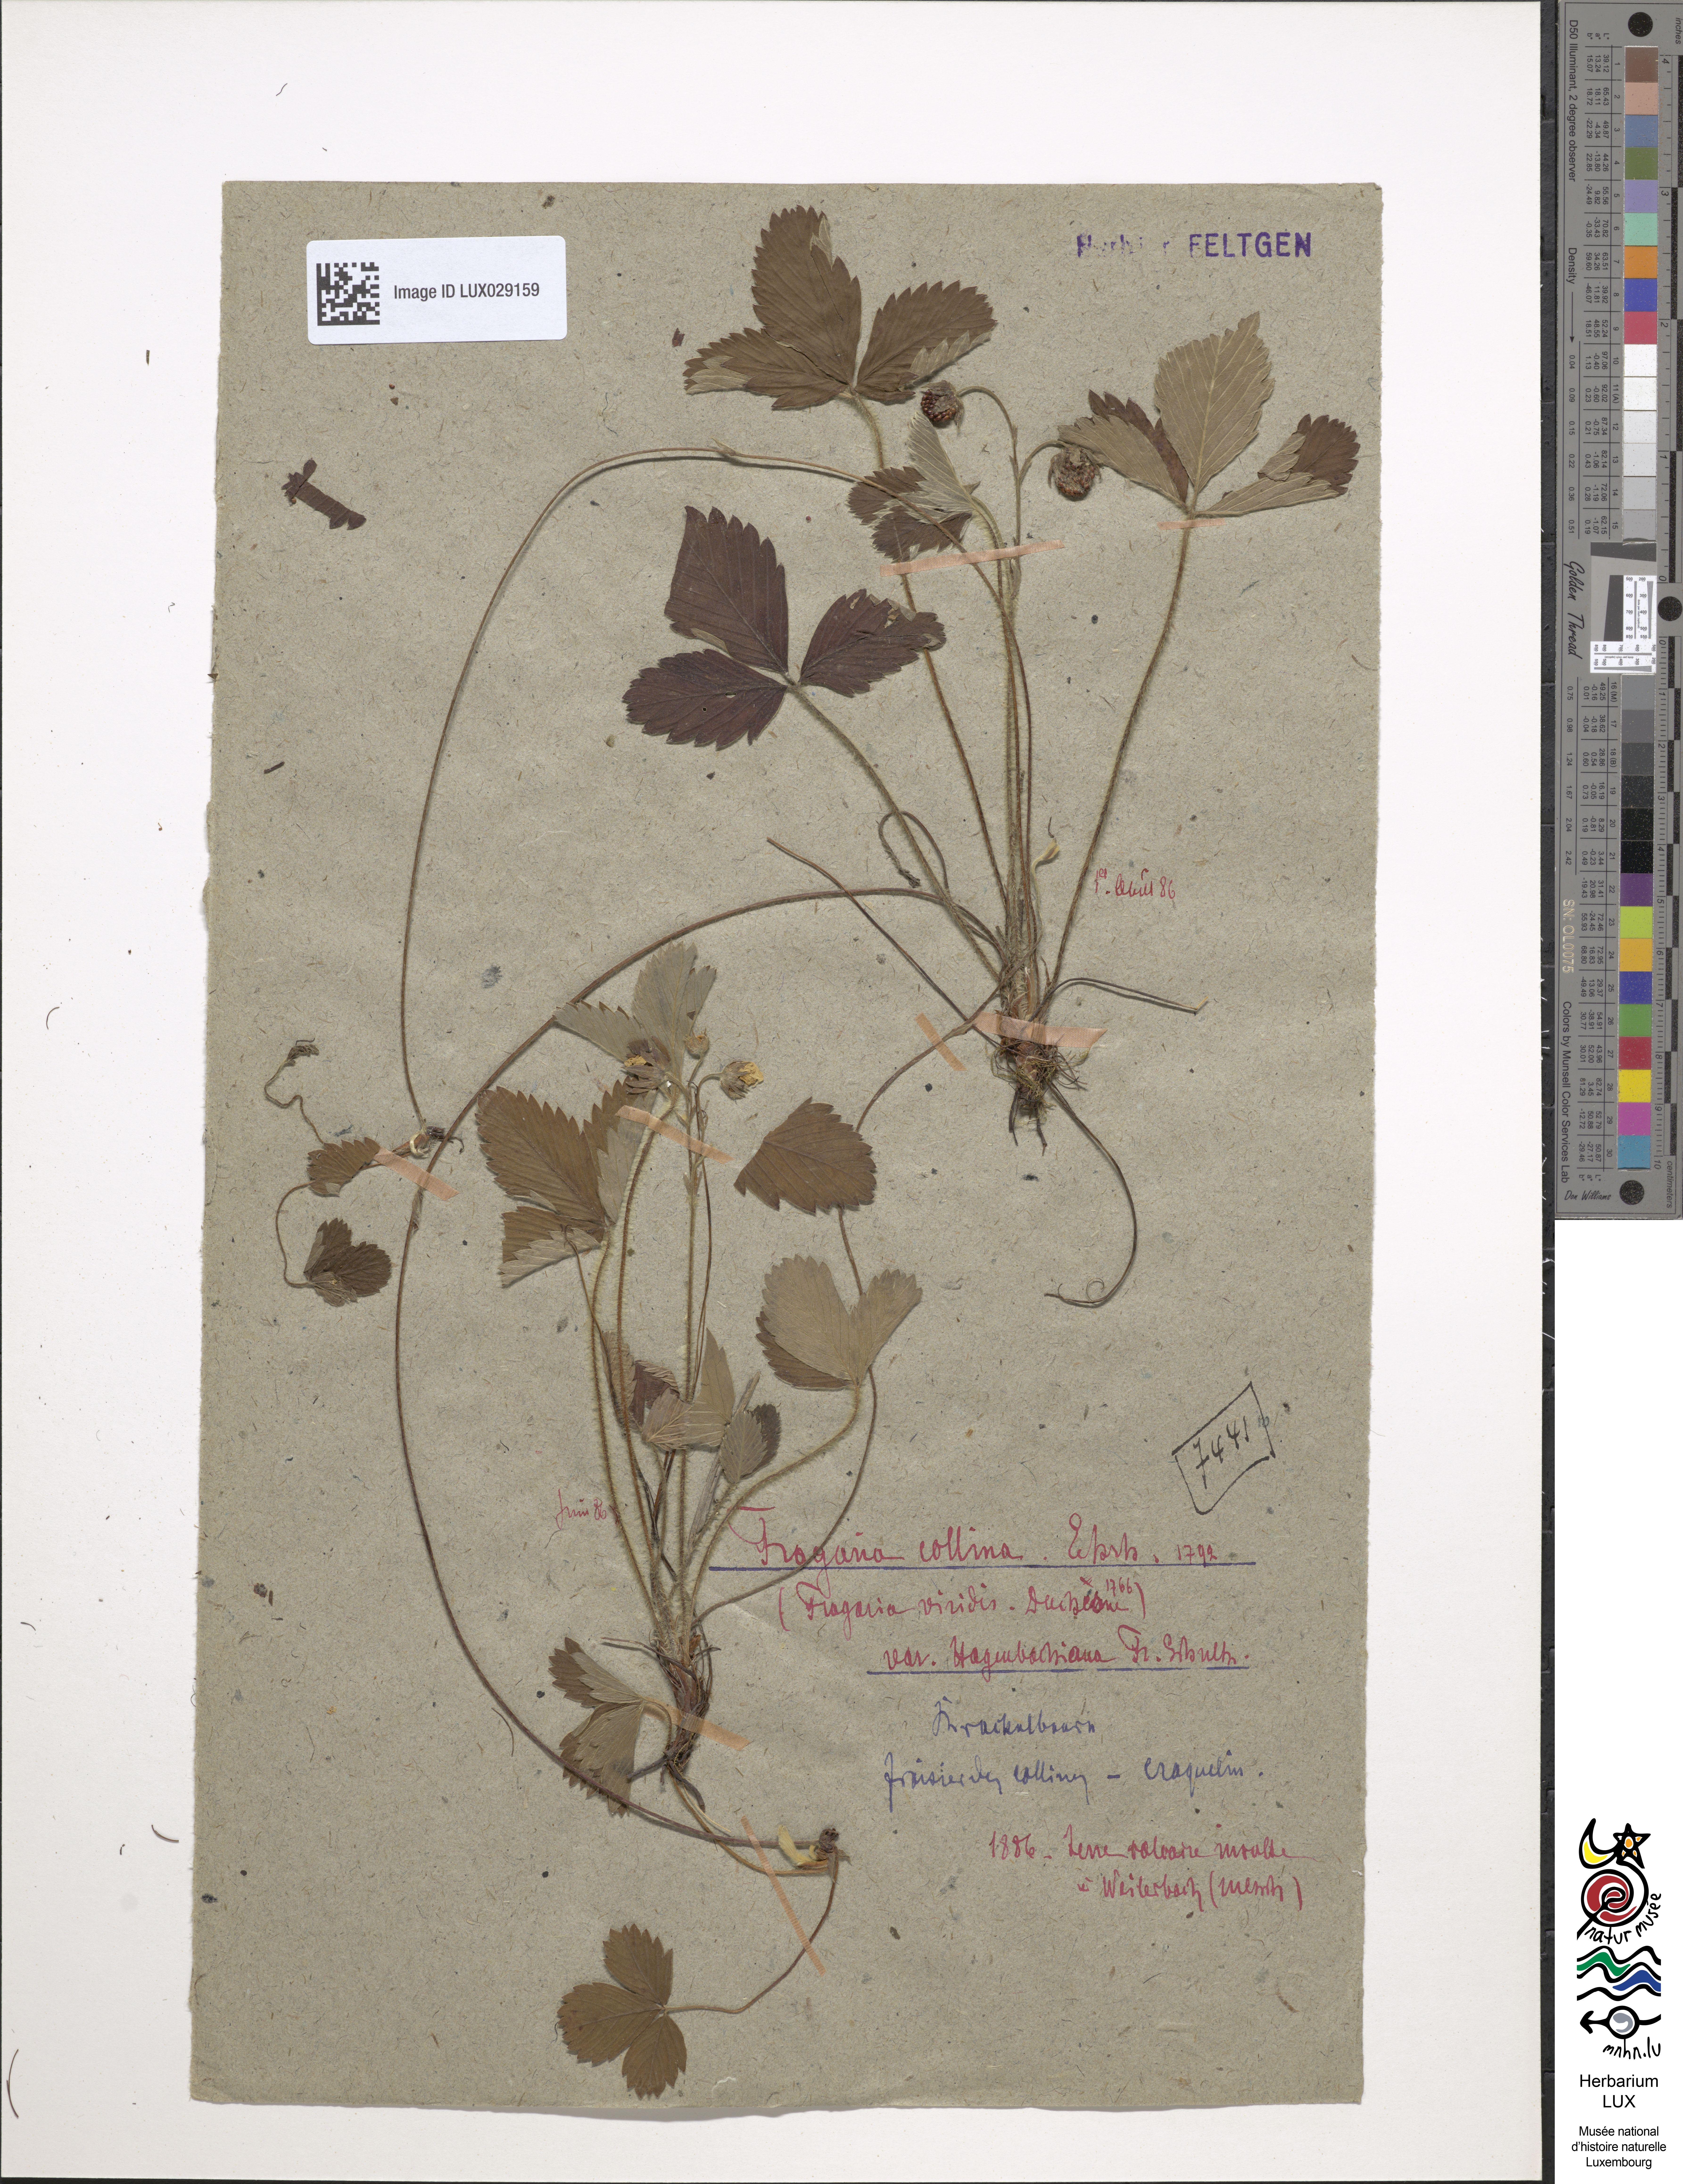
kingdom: Plantae
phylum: Tracheophyta
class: Magnoliopsida
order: Rosales
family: Rosaceae
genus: Fragaria
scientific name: Fragaria bifera
